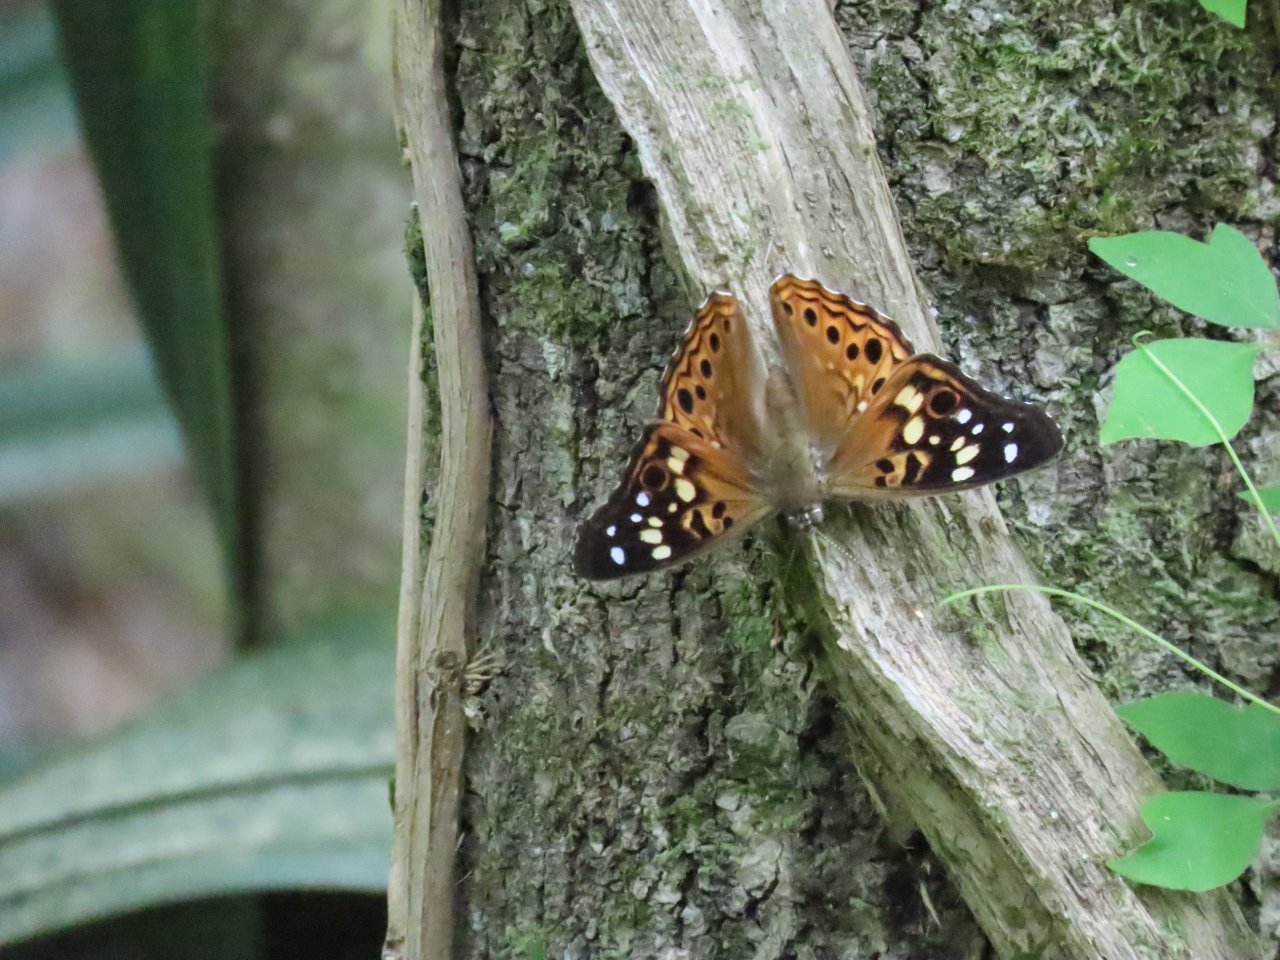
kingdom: Animalia
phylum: Arthropoda
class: Insecta
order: Lepidoptera
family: Nymphalidae
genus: Asterocampa
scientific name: Asterocampa celtis
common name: Hackberry Emperor
